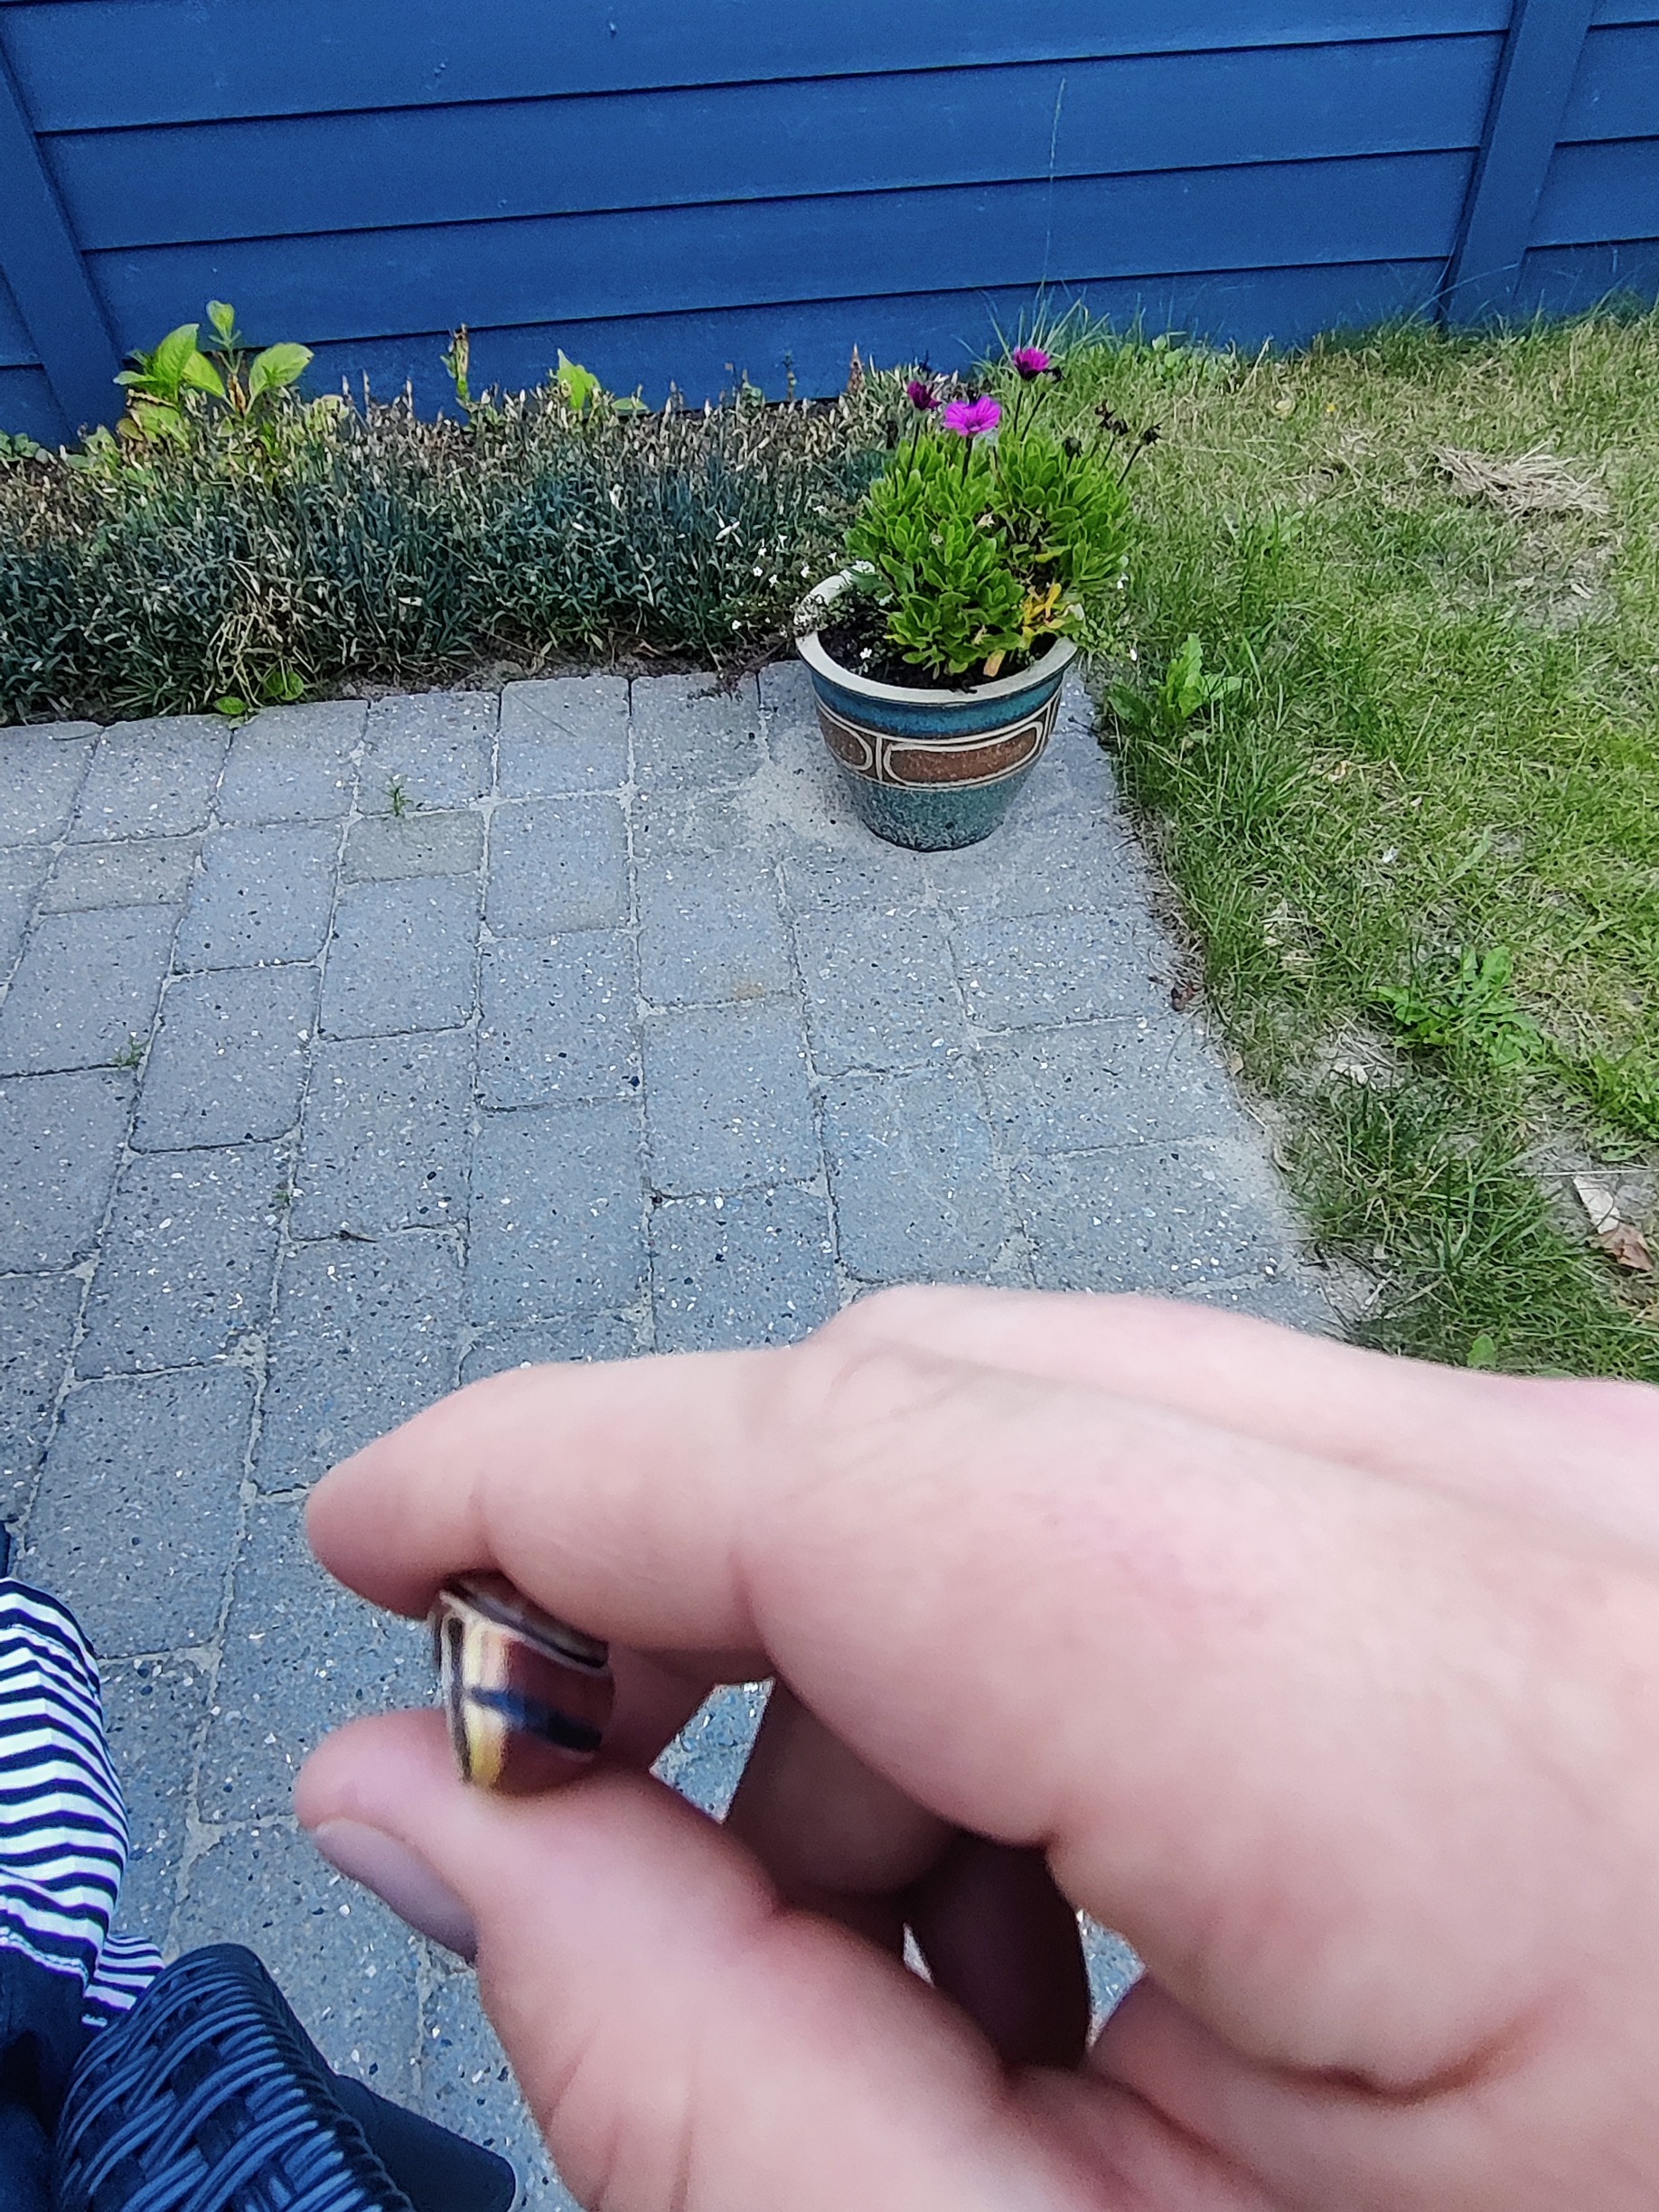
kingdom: Animalia
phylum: Mollusca
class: Gastropoda
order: Stylommatophora
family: Helicidae
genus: Cepaea
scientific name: Cepaea nemoralis
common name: Lundsnegl
